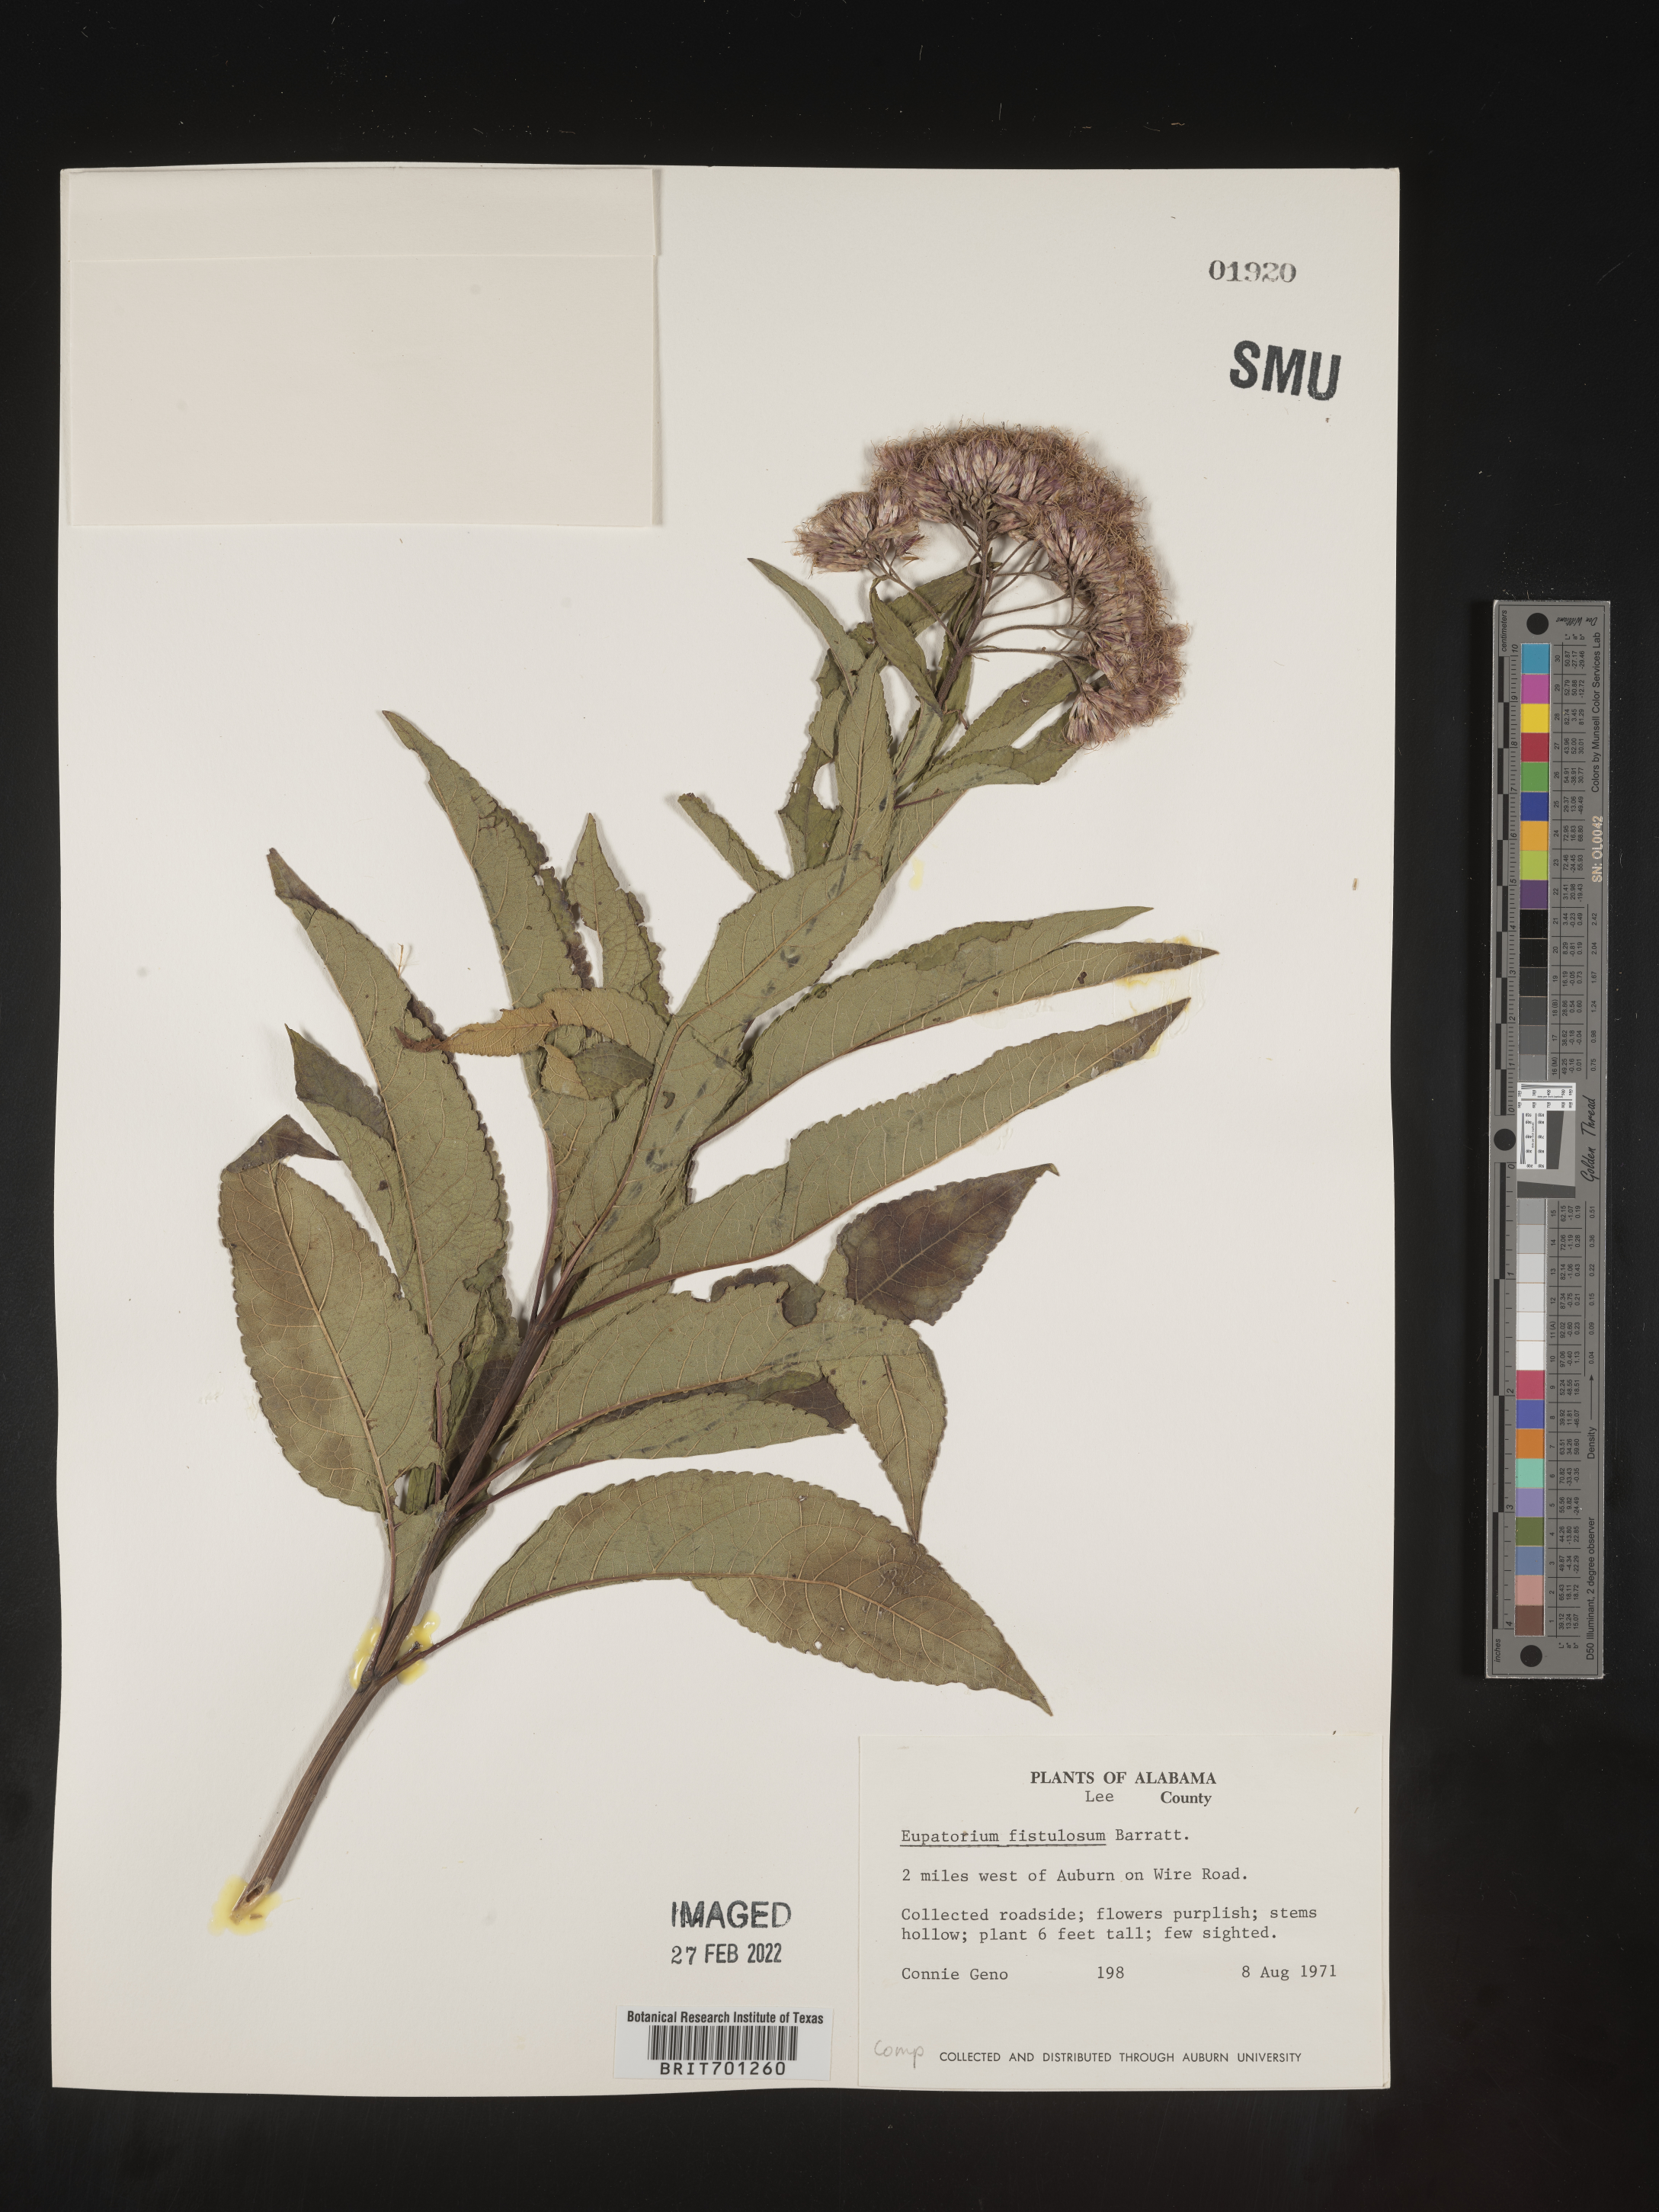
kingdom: Plantae
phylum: Tracheophyta
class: Magnoliopsida
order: Asterales
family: Asteraceae
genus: Eutrochium
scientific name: Eutrochium fistulosum
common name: Trumpetweed
